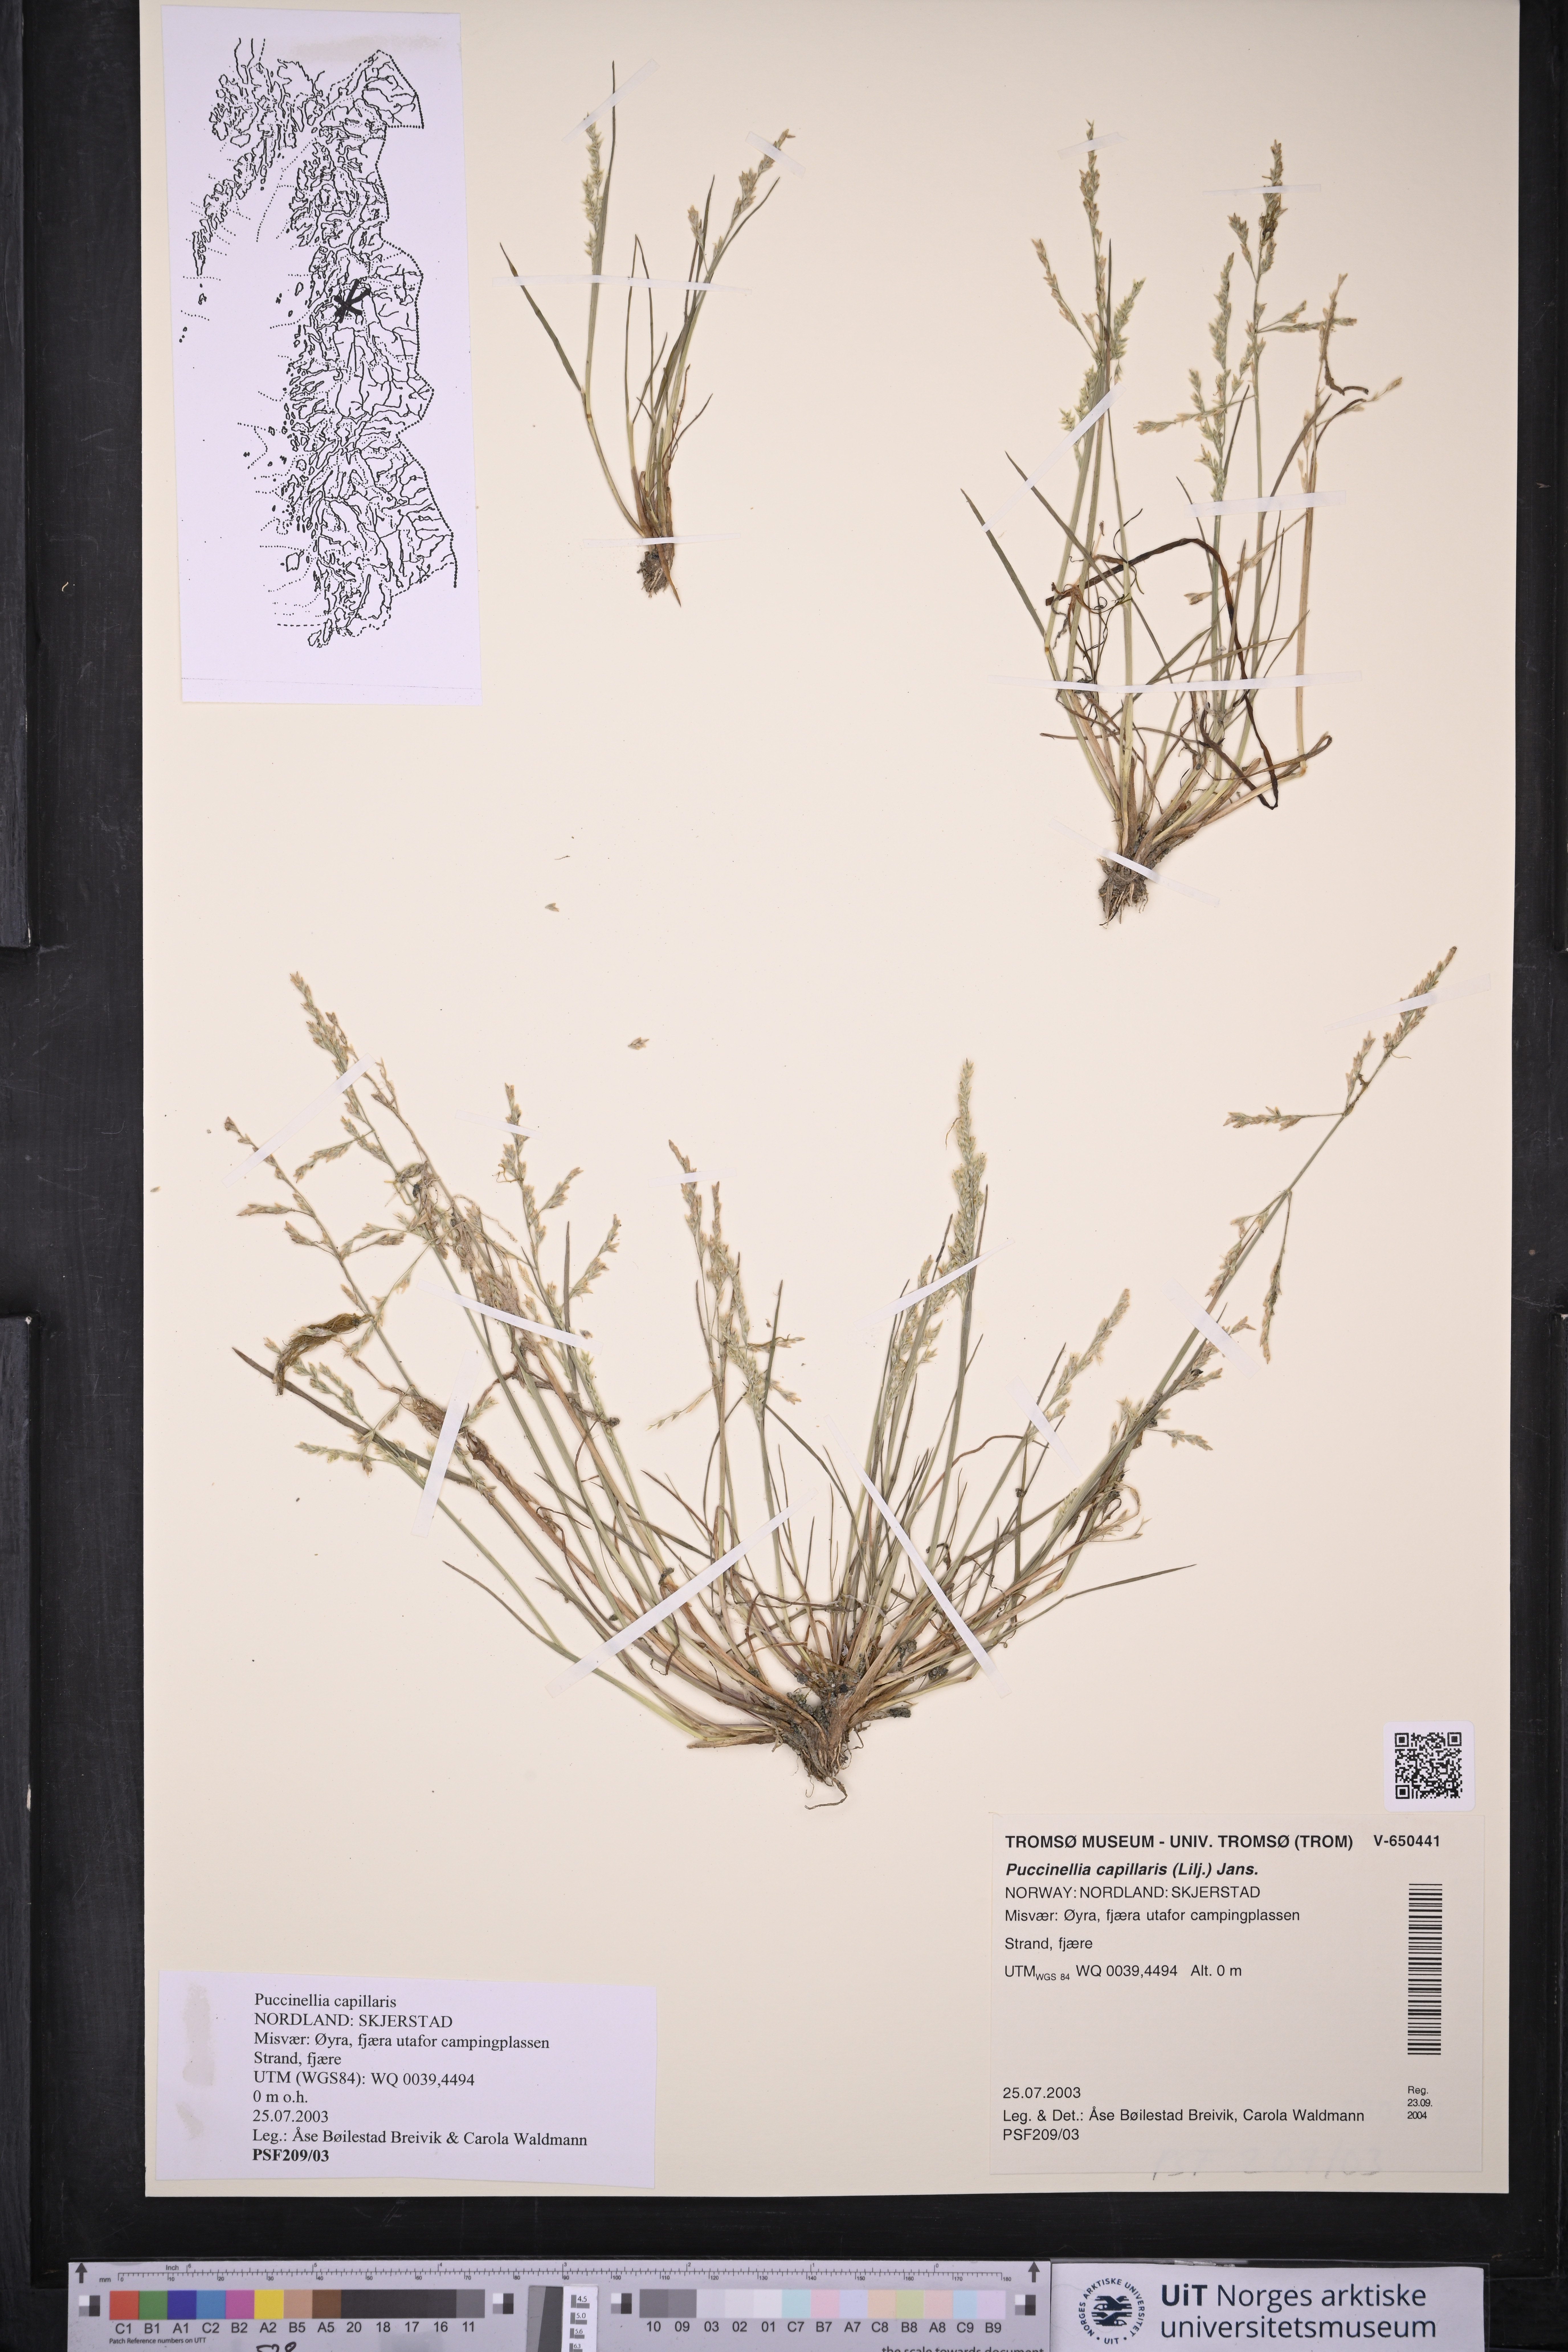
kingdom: Plantae
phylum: Tracheophyta
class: Liliopsida
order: Poales
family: Poaceae
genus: Puccinellia
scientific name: Puccinellia distans
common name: Weeping alkaligrass
